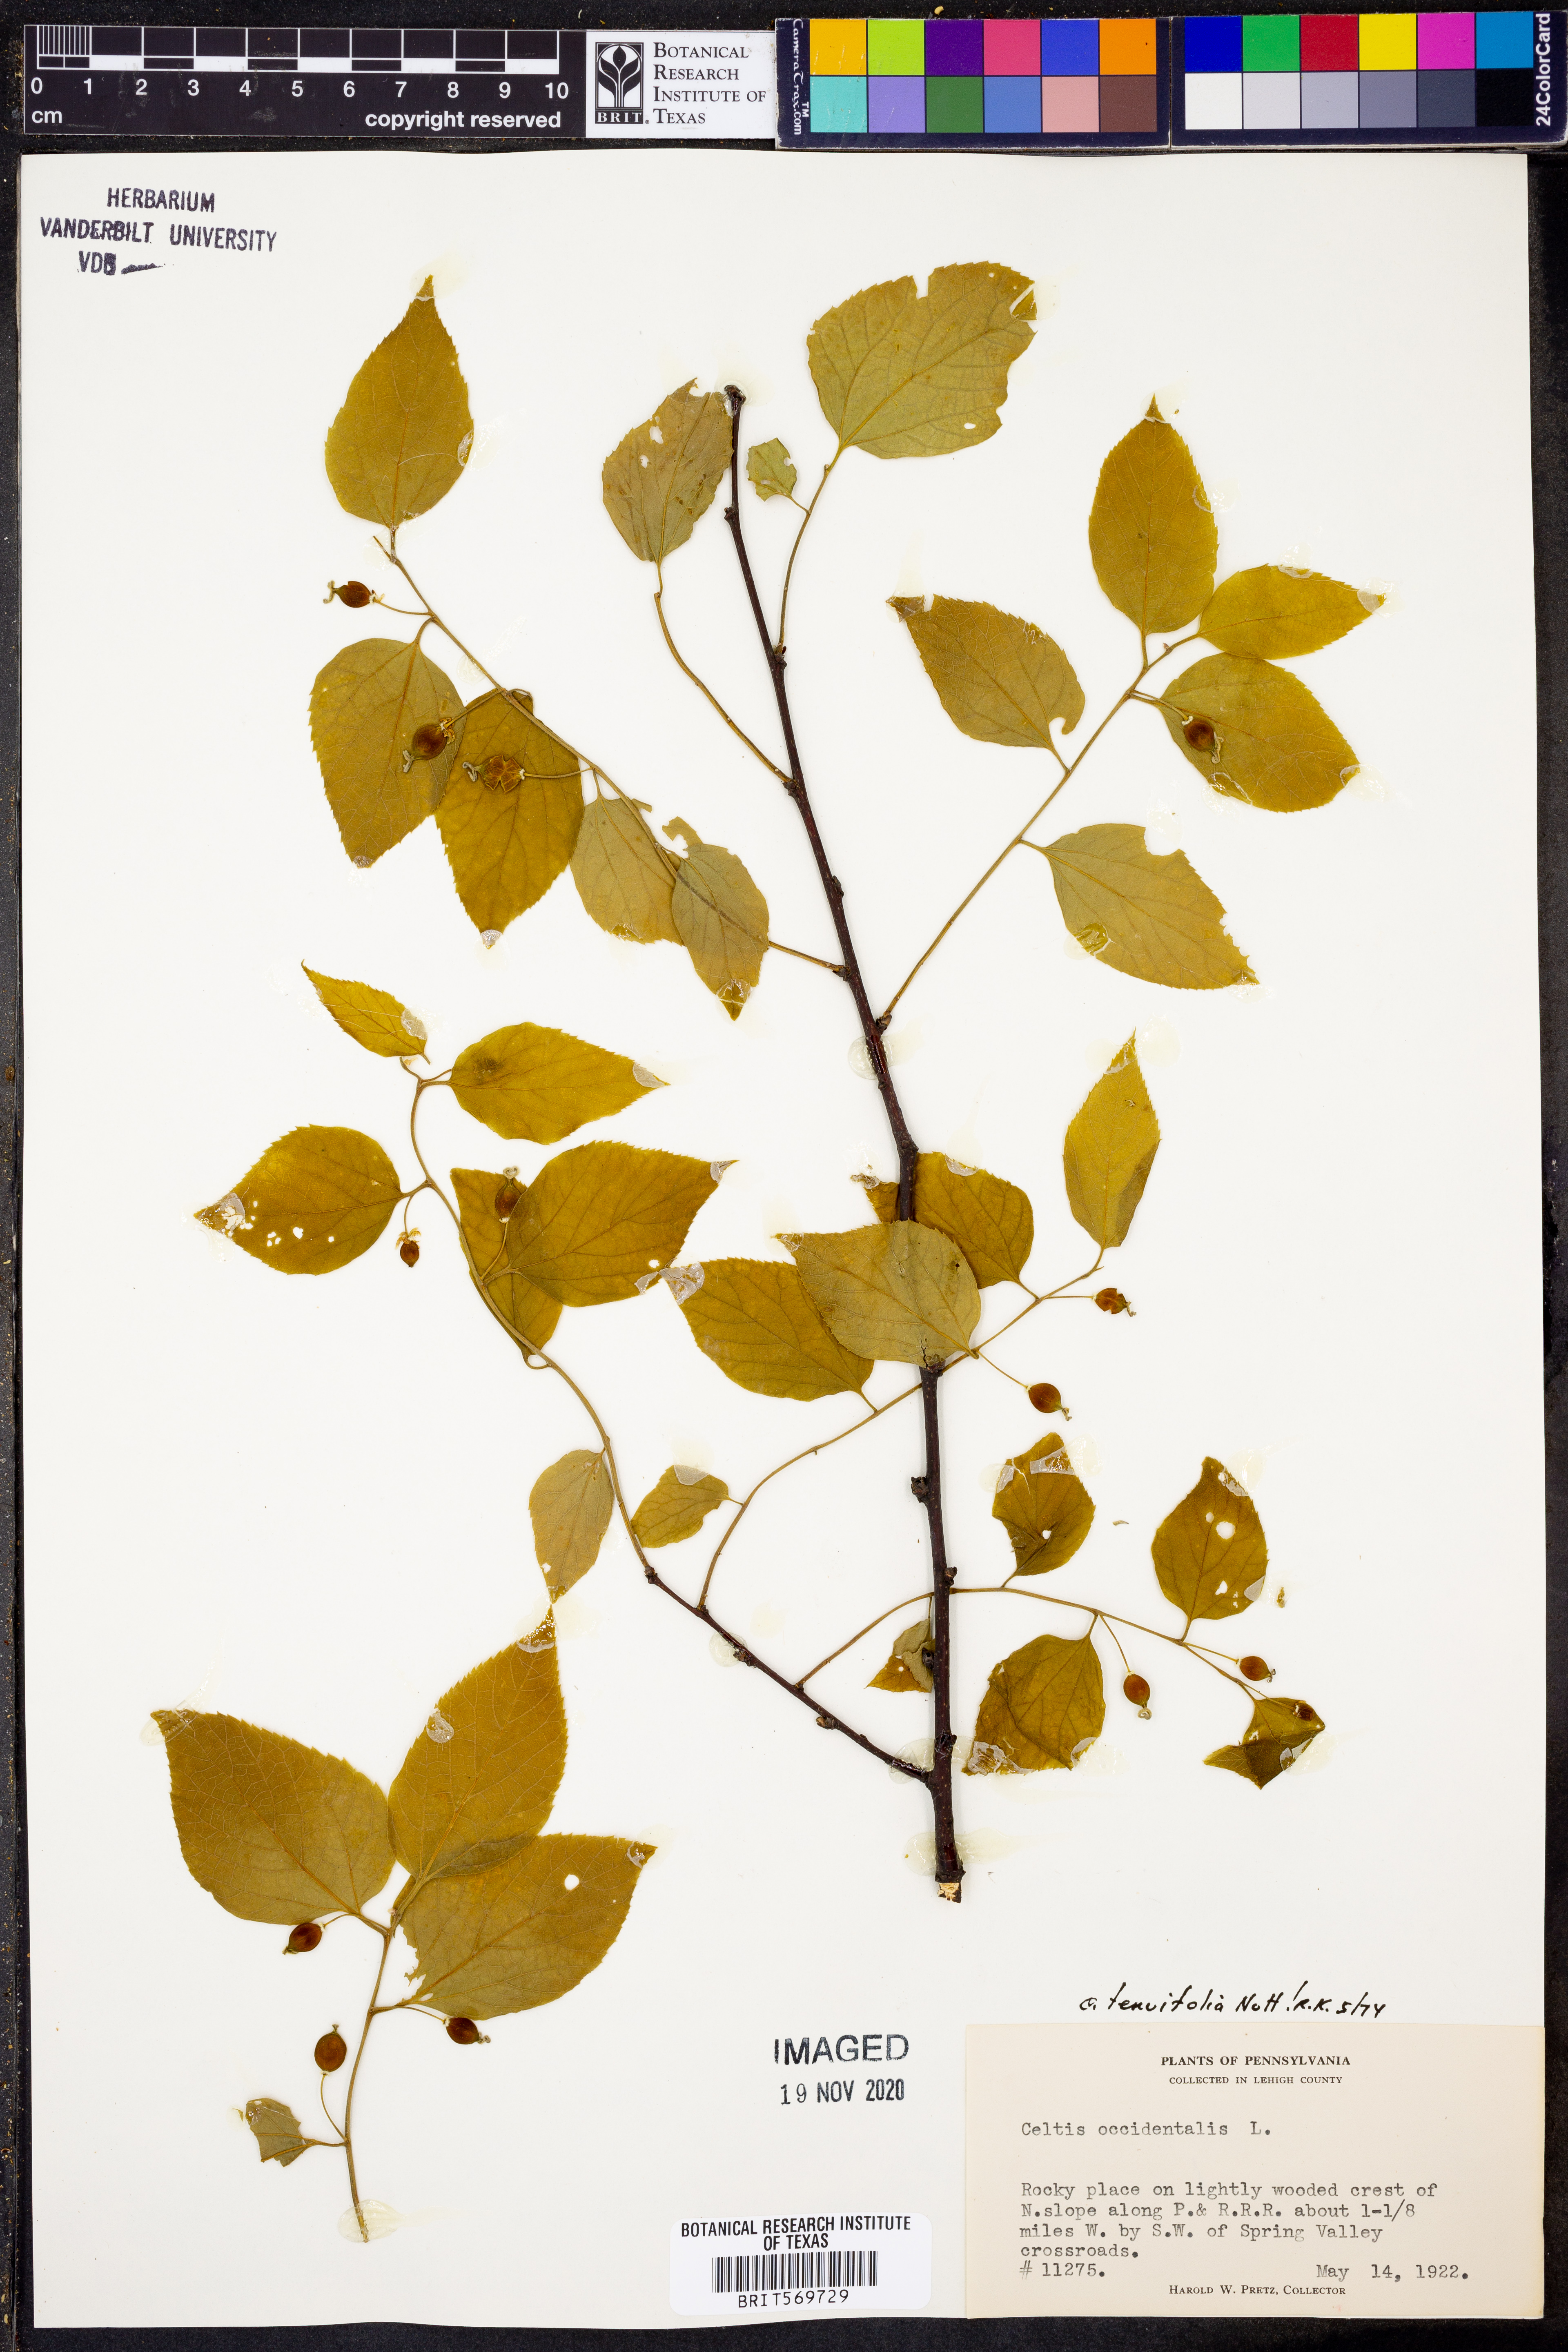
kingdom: Plantae
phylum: Tracheophyta
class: Magnoliopsida
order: Rosales
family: Cannabaceae
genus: Celtis
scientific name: Celtis tenuifolia
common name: Georgia hackberry
